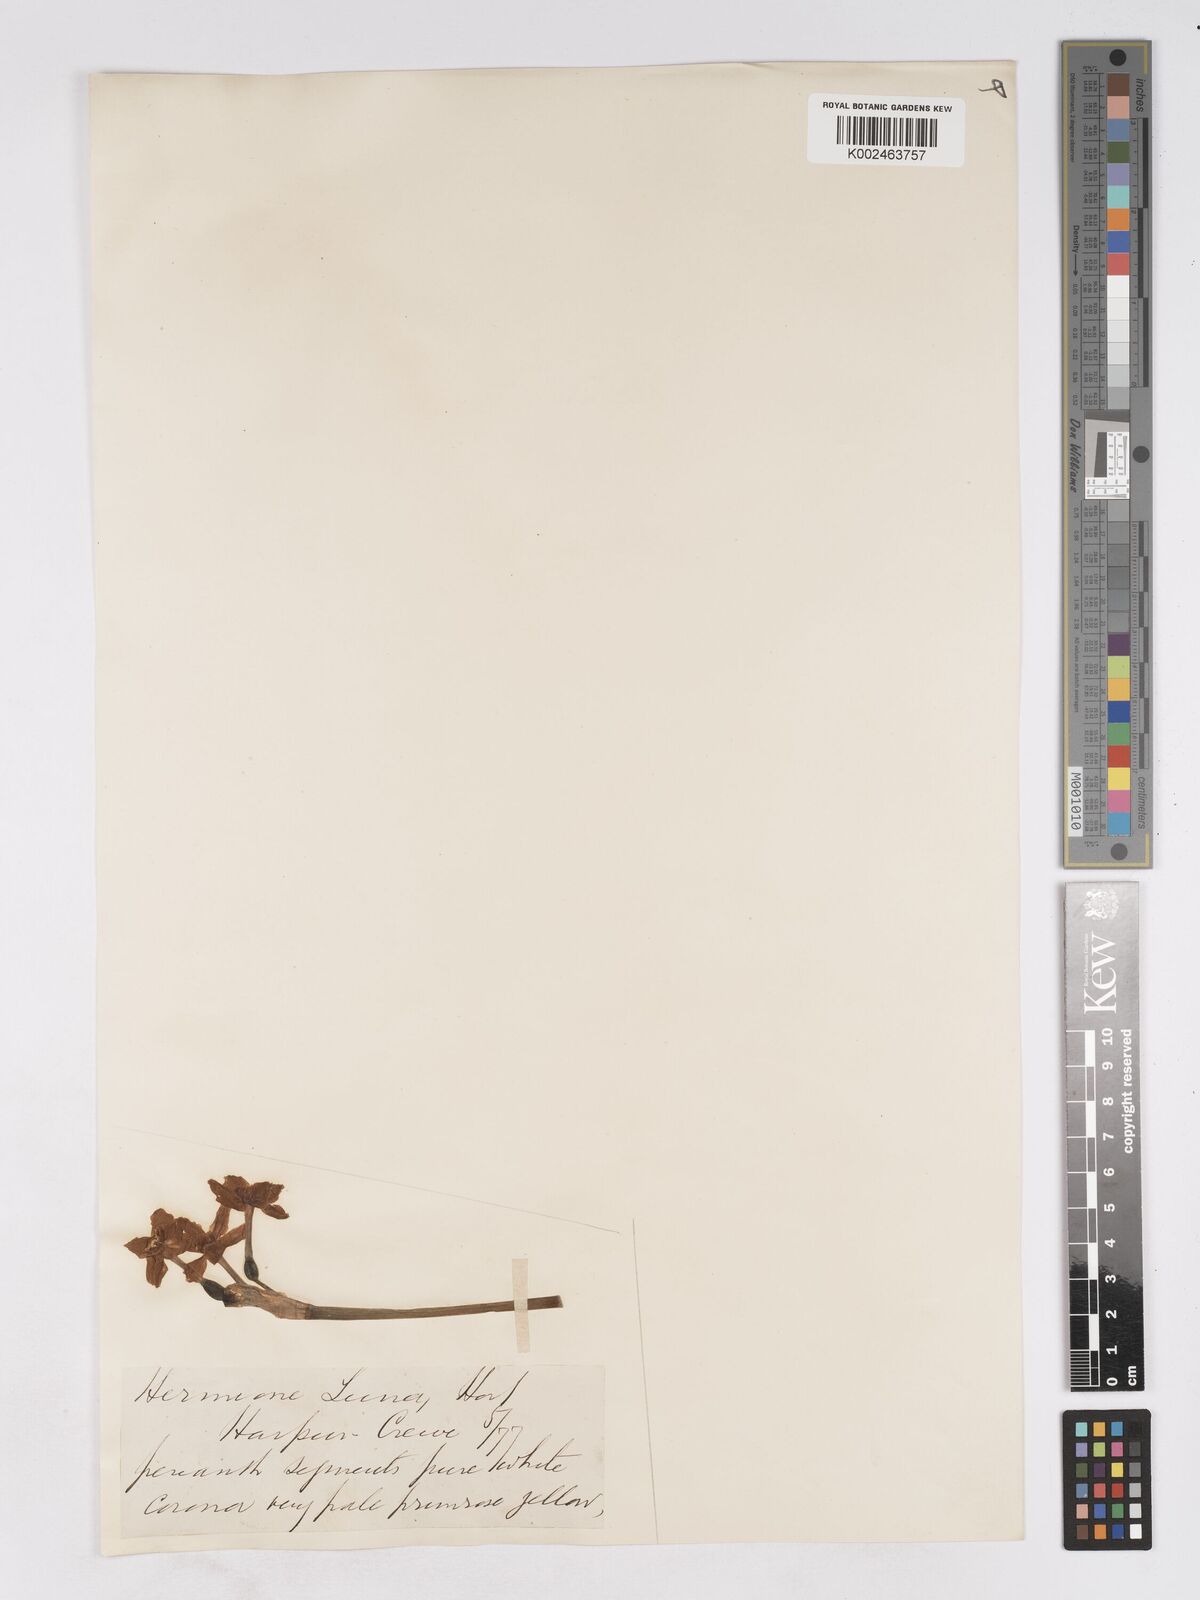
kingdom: Plantae
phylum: Tracheophyta
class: Liliopsida
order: Asparagales
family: Amaryllidaceae
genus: Narcissus
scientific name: Narcissus
